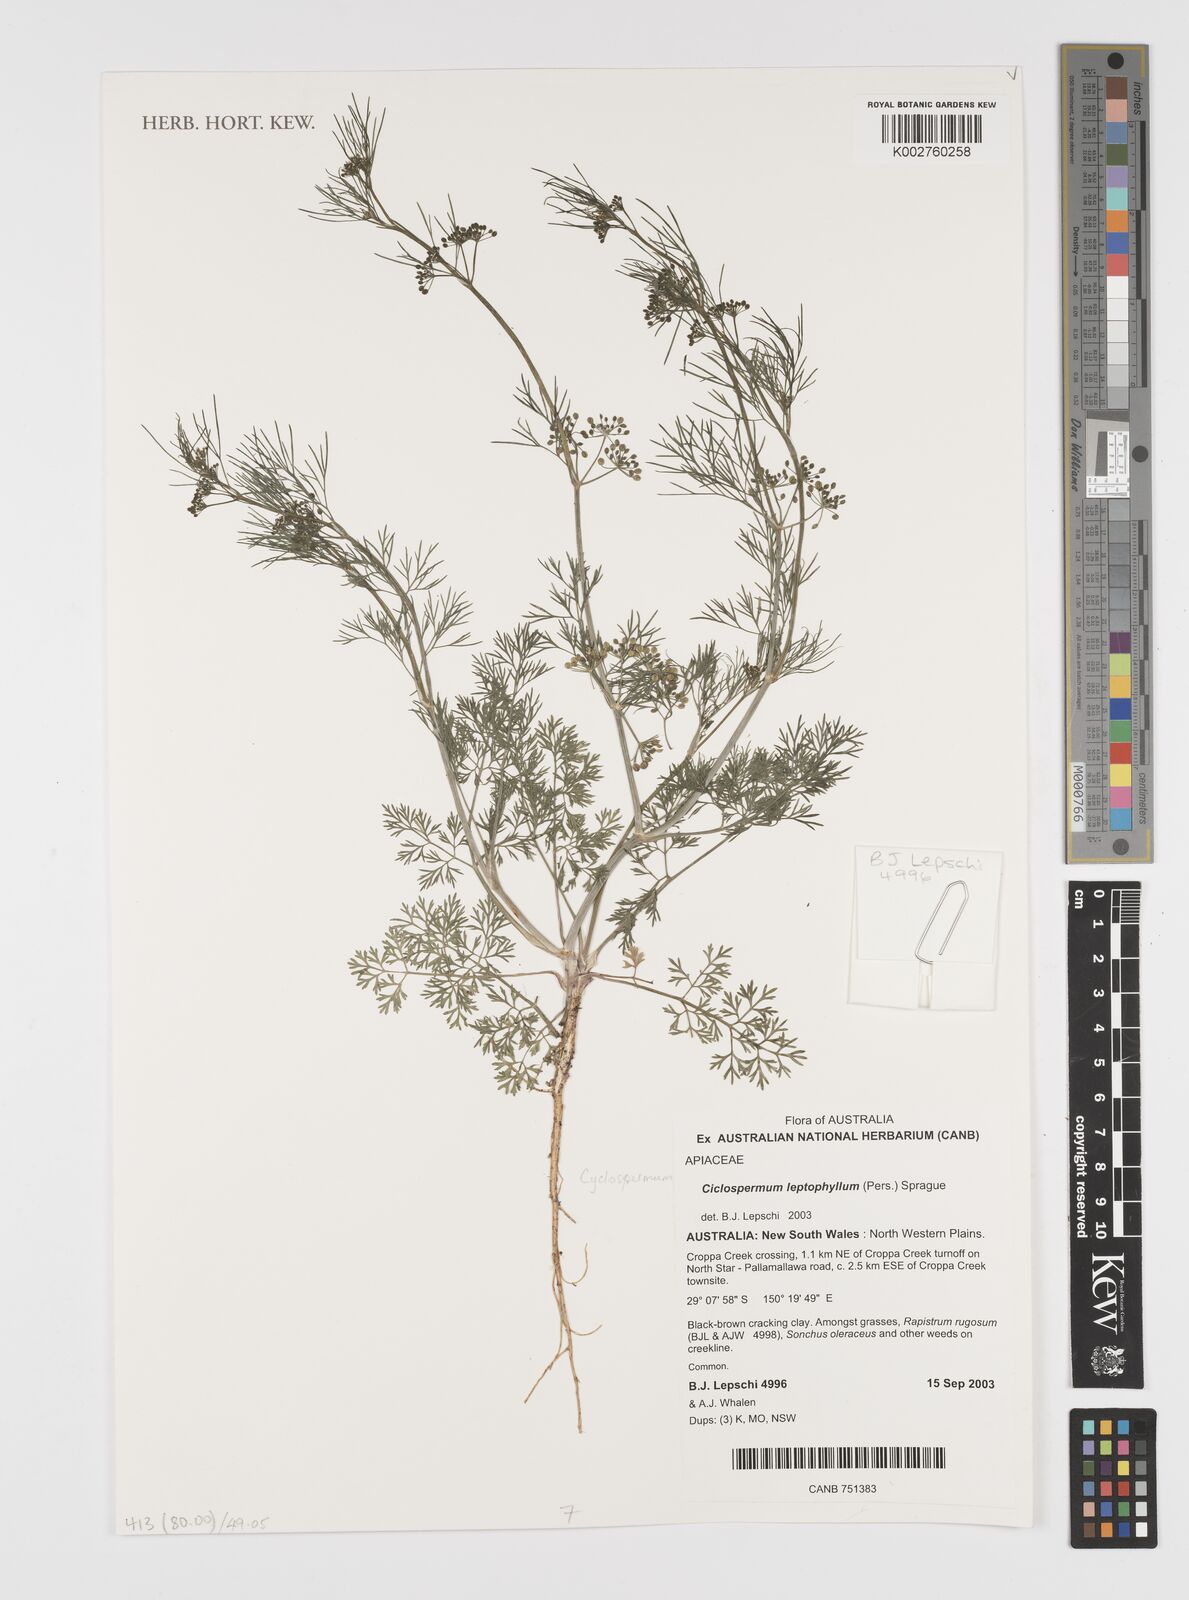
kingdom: Plantae
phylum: Tracheophyta
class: Magnoliopsida
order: Apiales
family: Apiaceae
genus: Cyclospermum
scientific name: Cyclospermum leptophyllum
